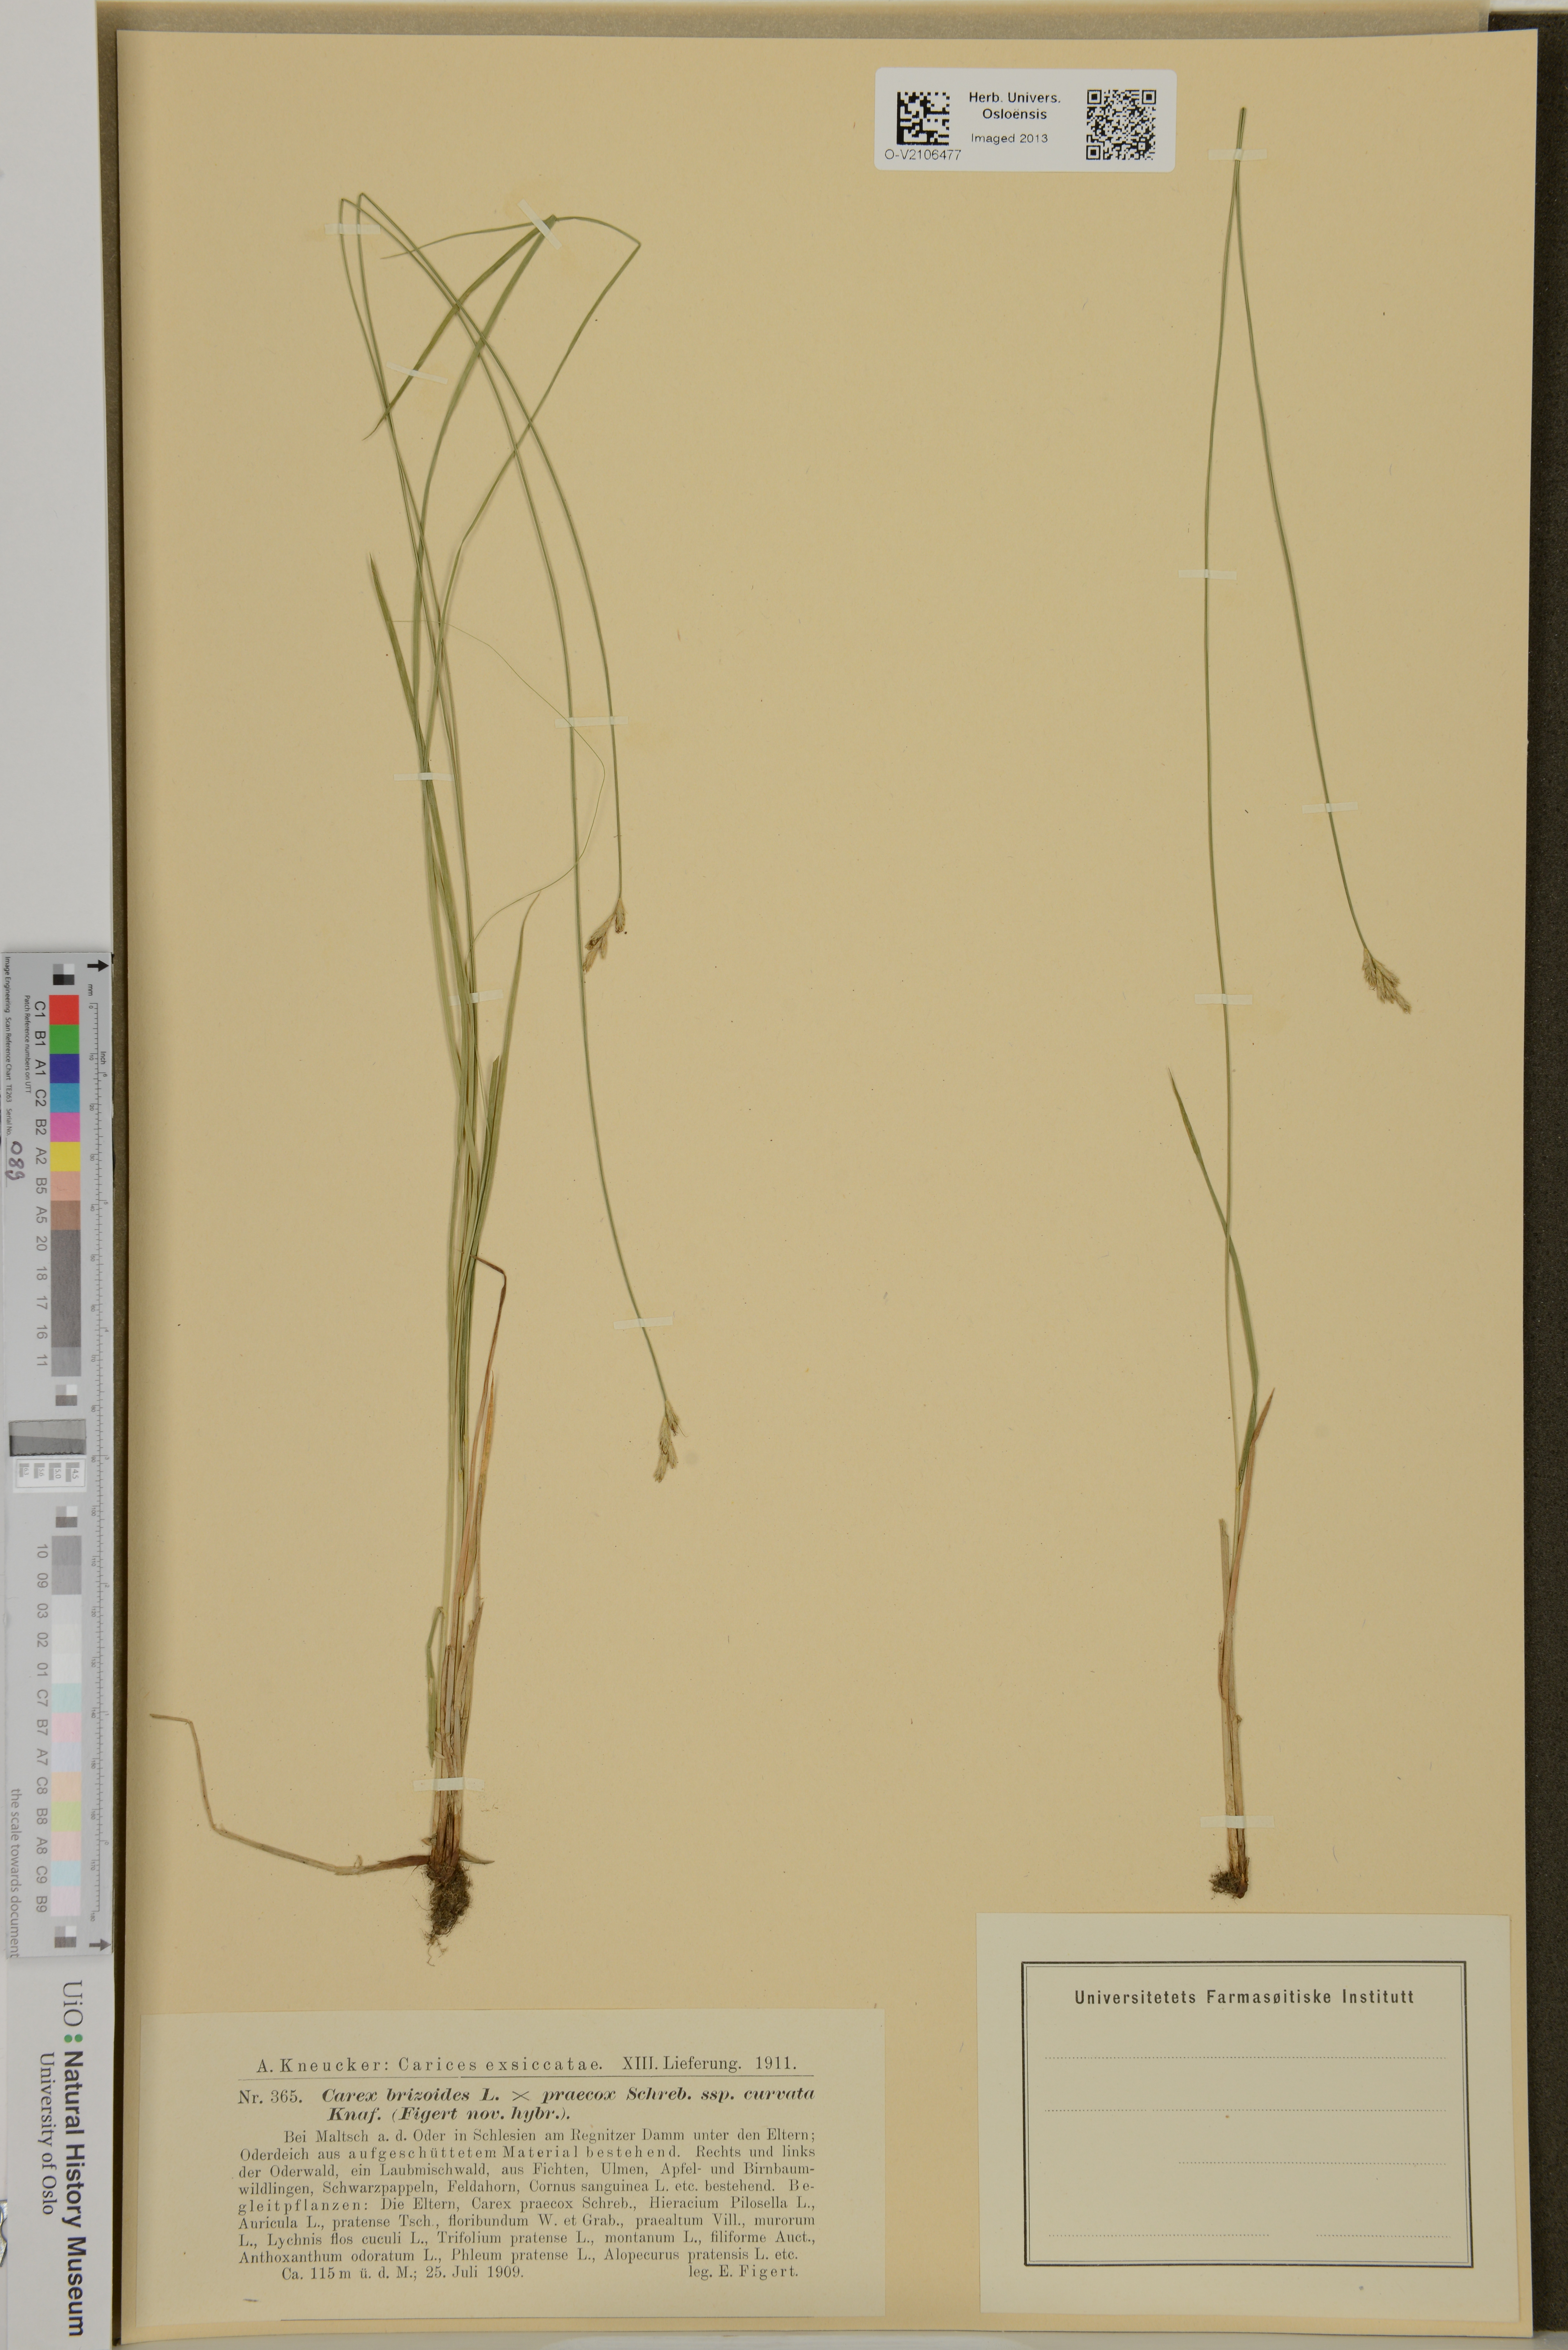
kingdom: Plantae
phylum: Tracheophyta
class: Liliopsida
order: Poales
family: Cyperaceae
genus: Carex
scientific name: Carex brizoides
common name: Quaking-grass sedge
